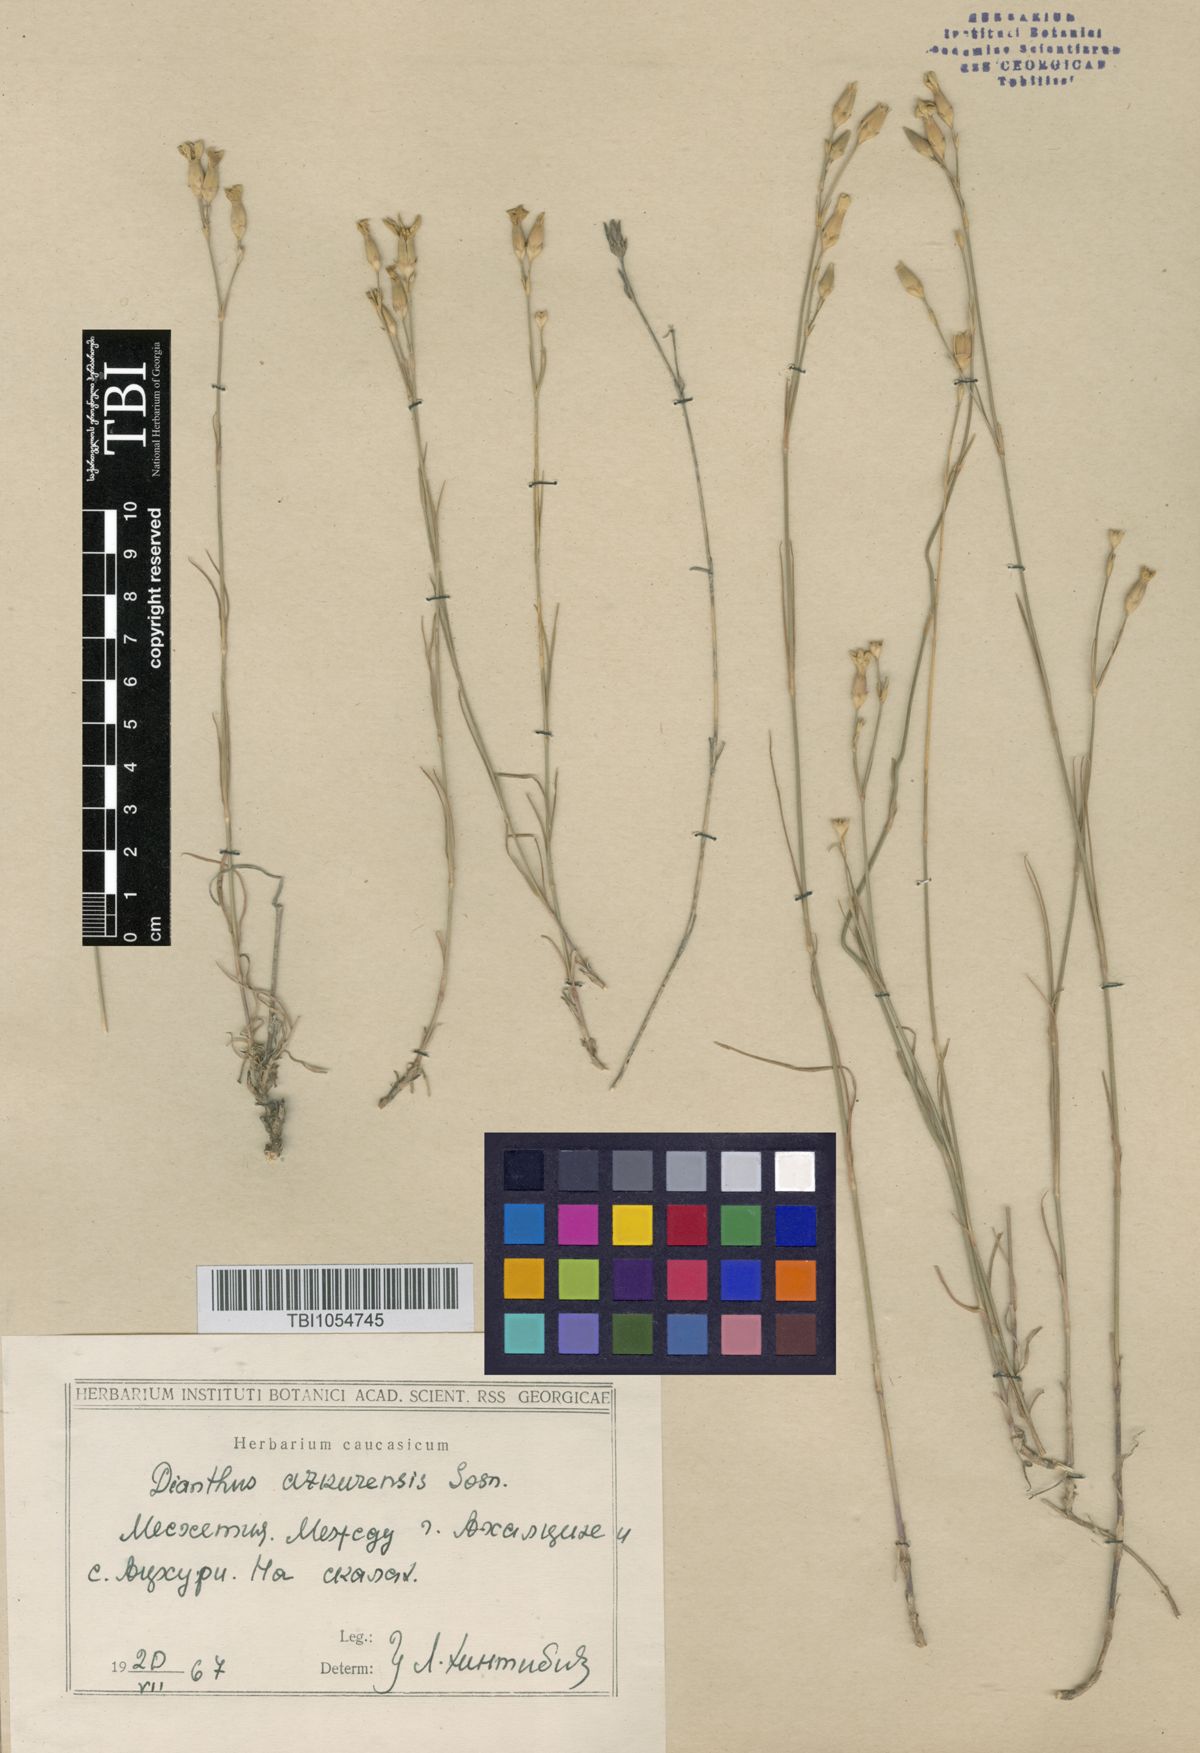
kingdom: Plantae
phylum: Tracheophyta
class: Magnoliopsida
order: Caryophyllales
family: Caryophyllaceae
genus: Dianthus
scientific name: Dianthus
